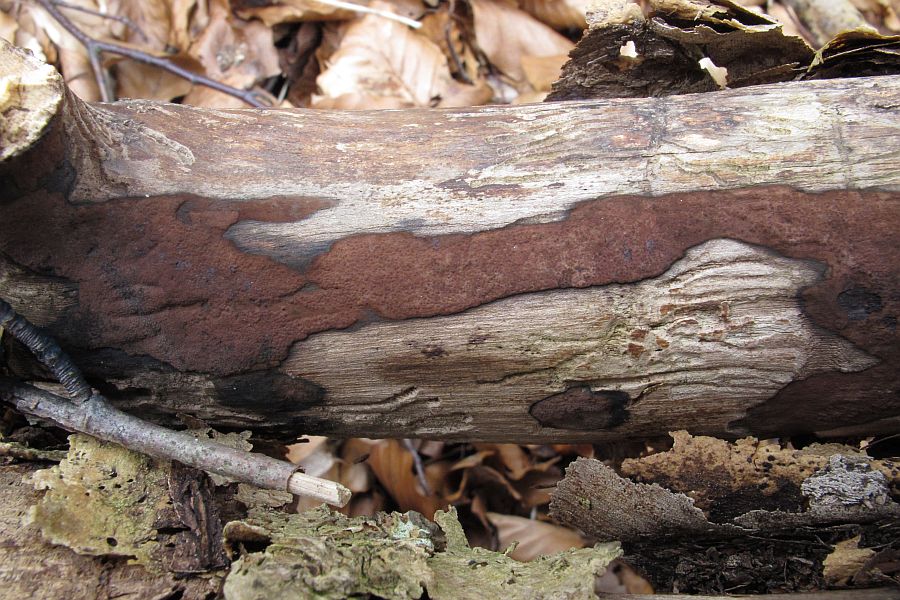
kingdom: Fungi
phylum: Ascomycota
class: Sordariomycetes
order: Xylariales
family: Hypoxylaceae
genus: Hypoxylon
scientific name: Hypoxylon petriniae
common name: nedsænket kulbær
